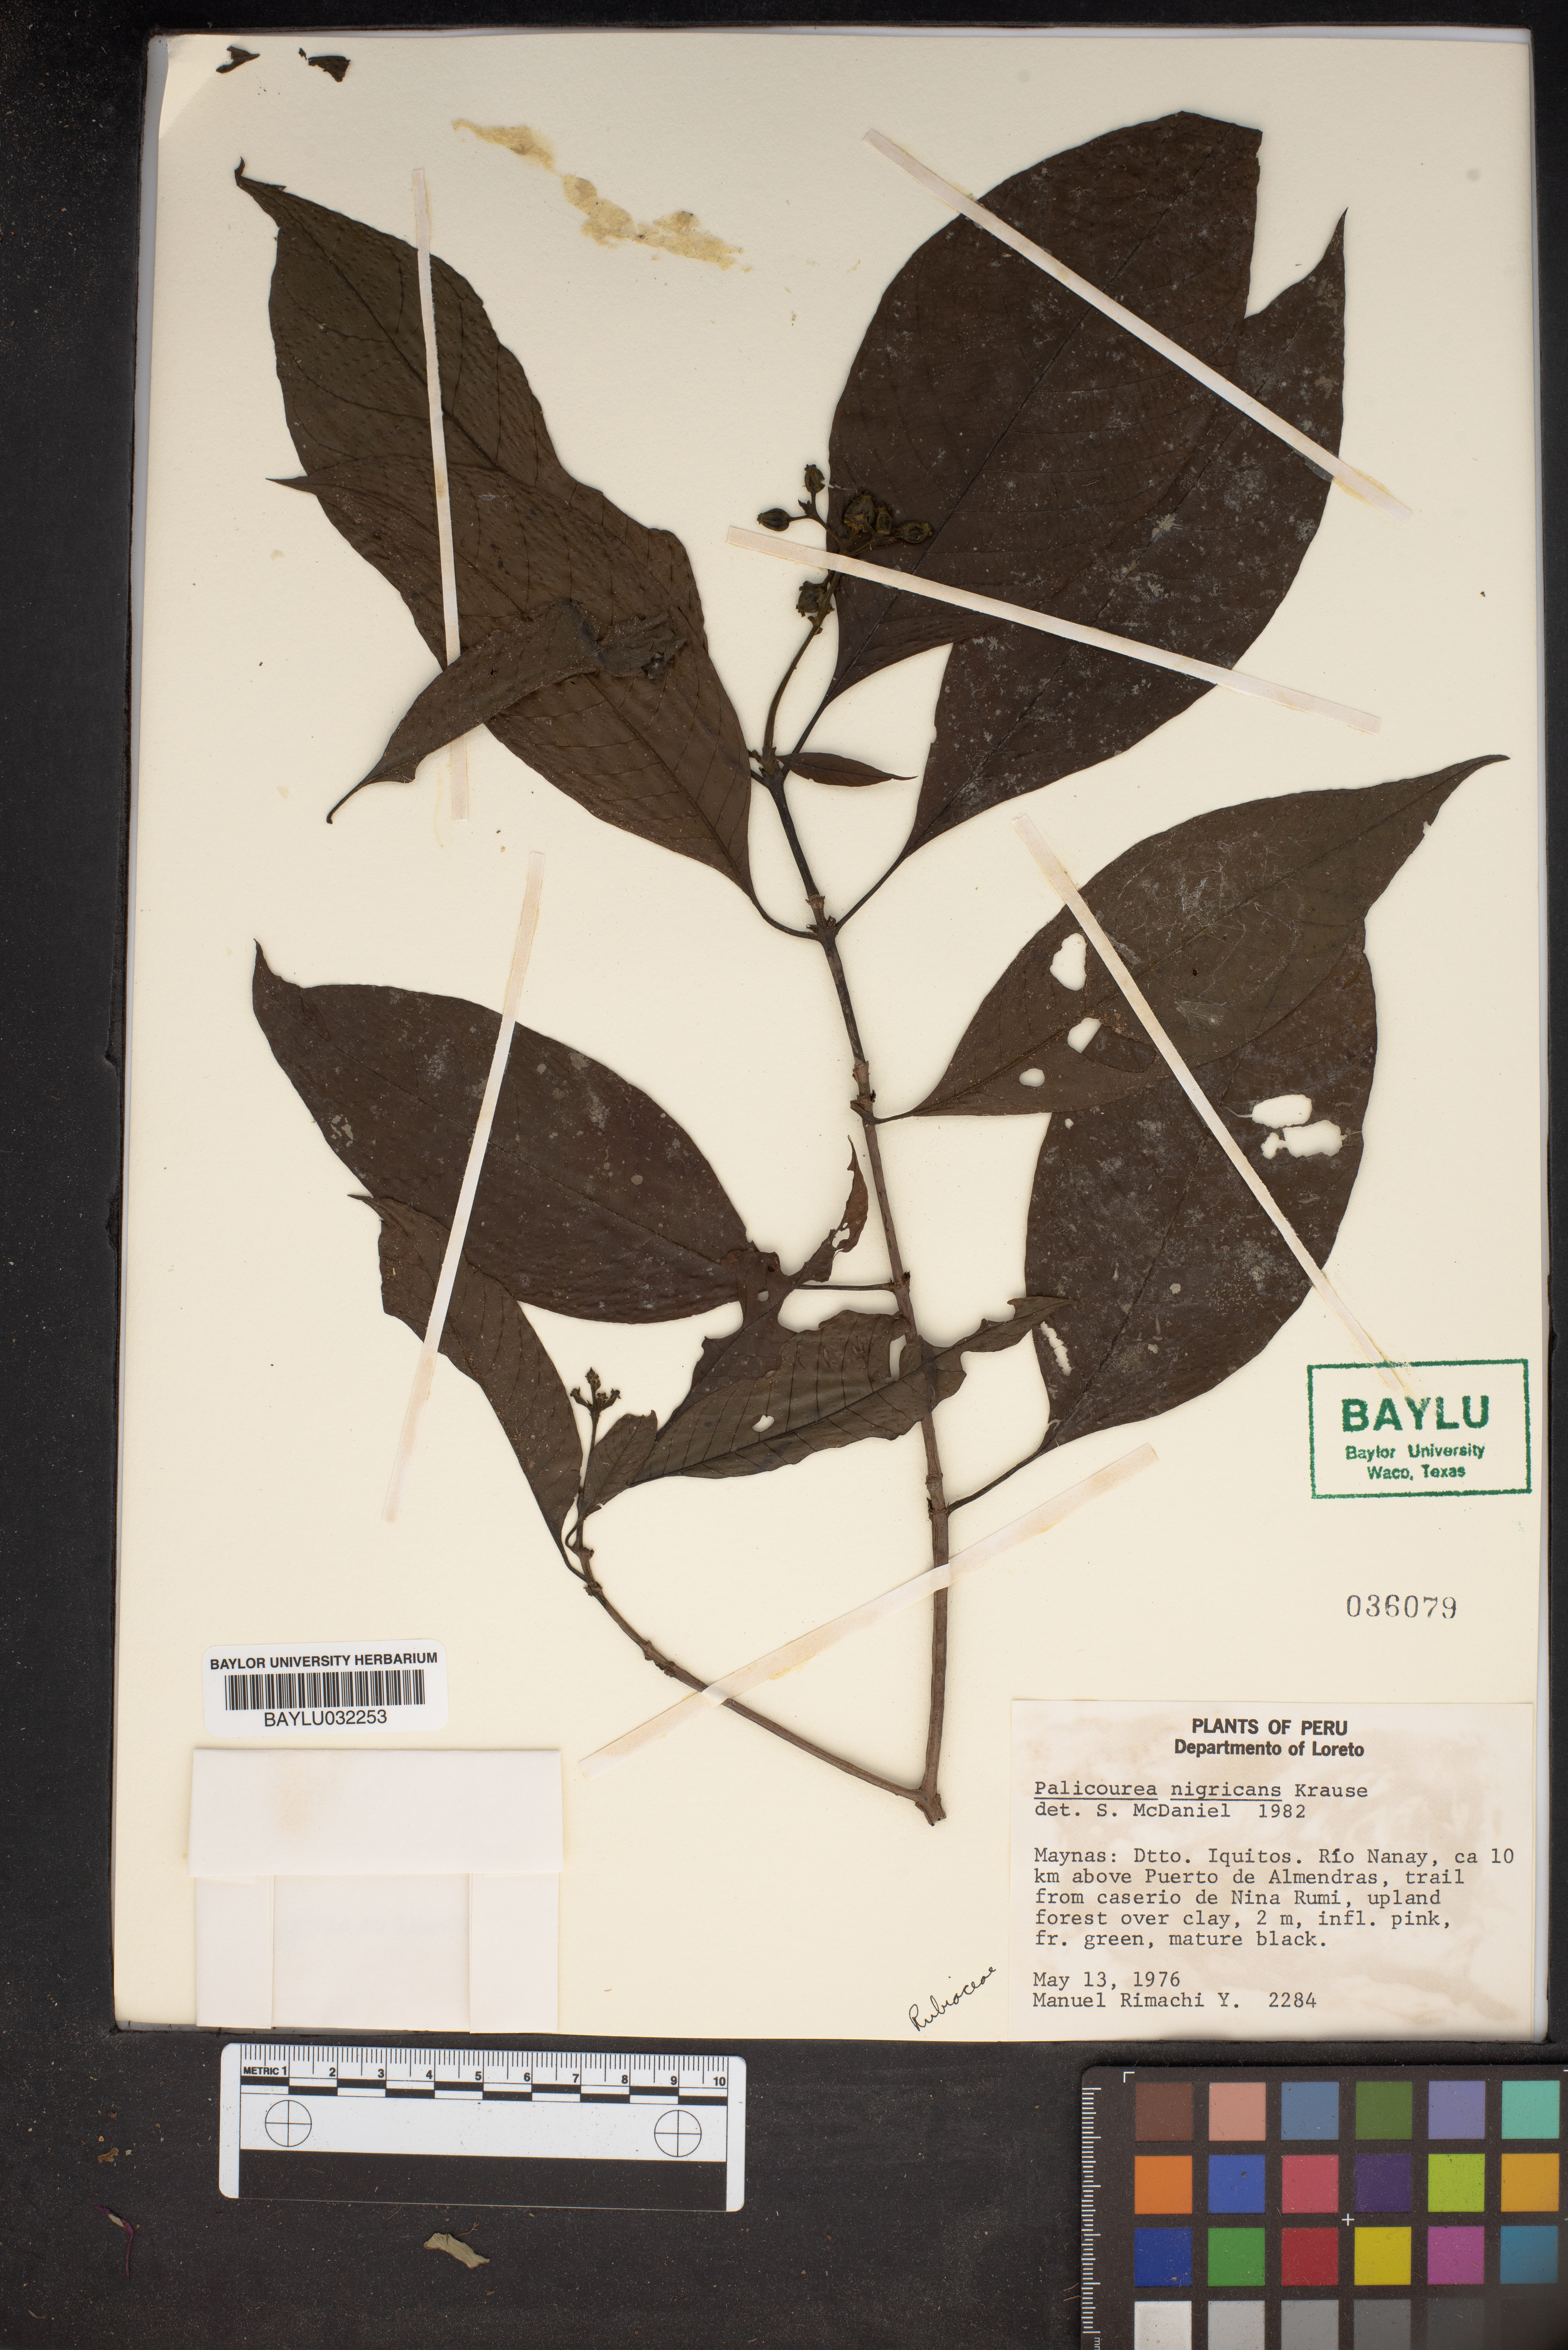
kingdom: Plantae
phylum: Tracheophyta
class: Magnoliopsida
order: Gentianales
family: Rubiaceae
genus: Palicourea
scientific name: Palicourea nigricans
